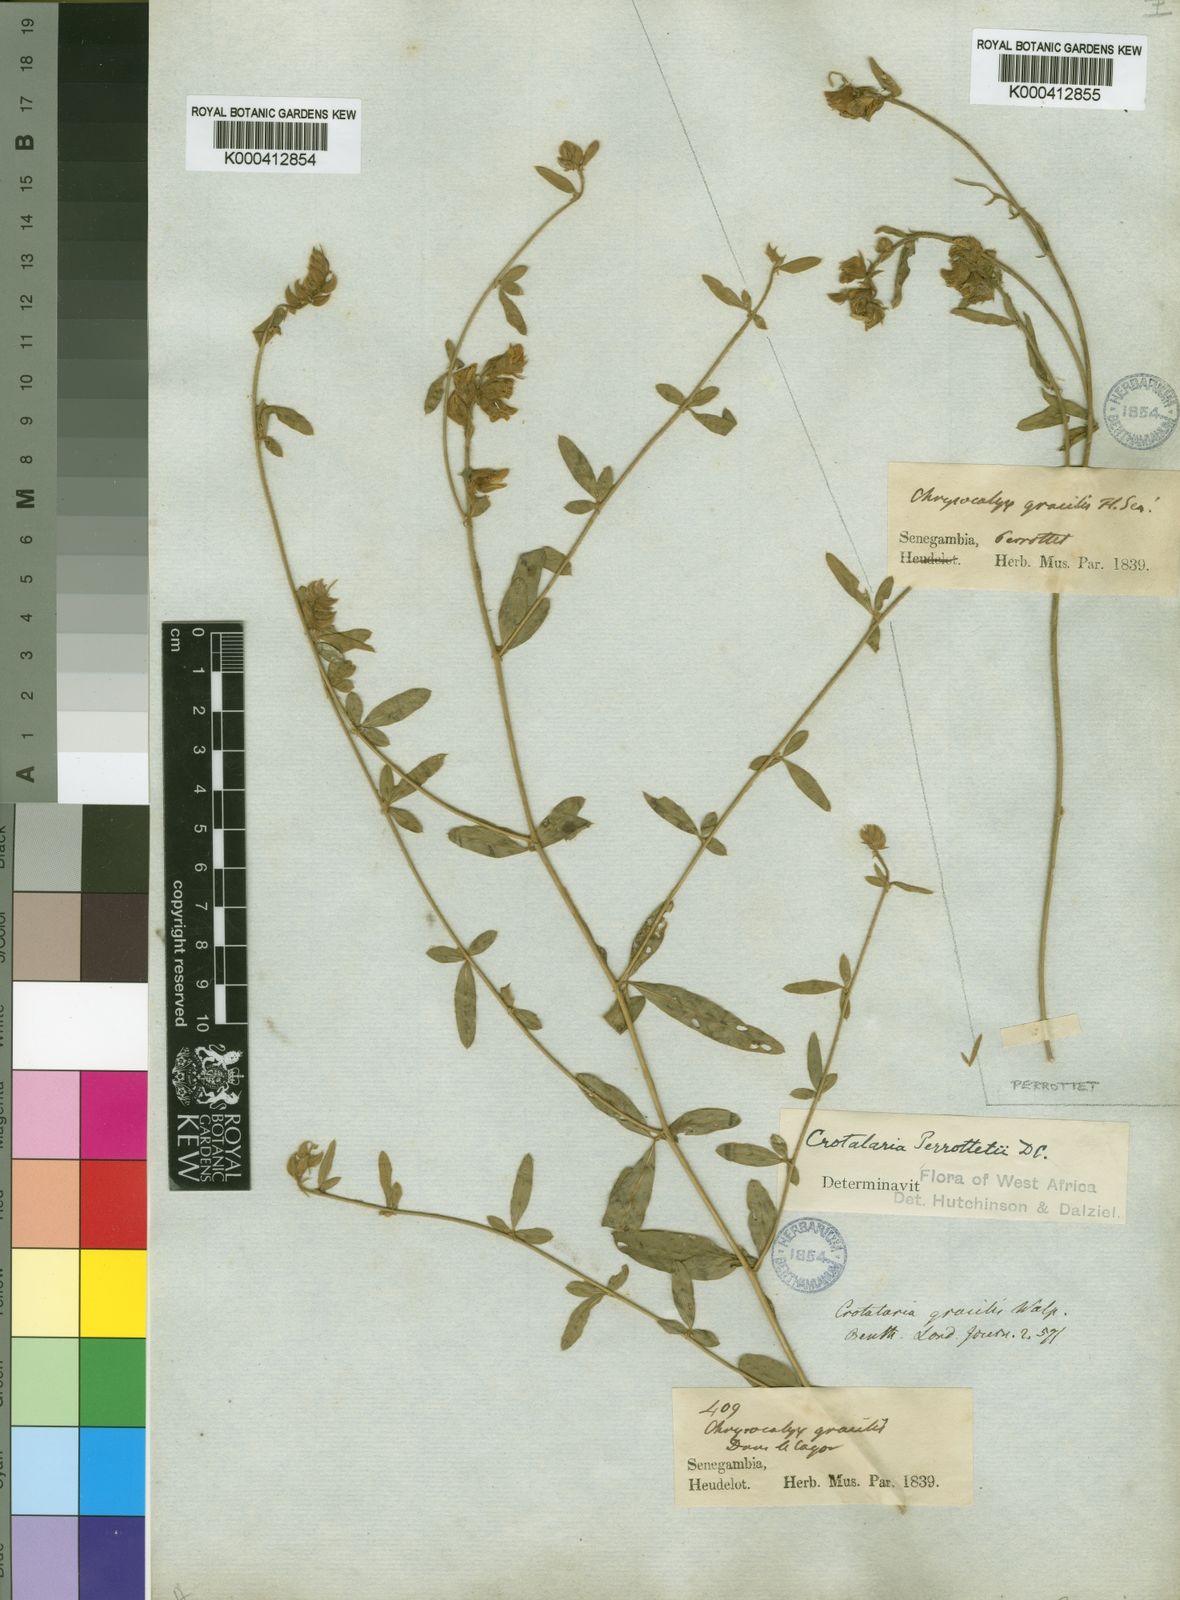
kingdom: Plantae
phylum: Tracheophyta
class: Magnoliopsida
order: Fabales
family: Fabaceae
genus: Crotalaria
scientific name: Crotalaria perrottetii
